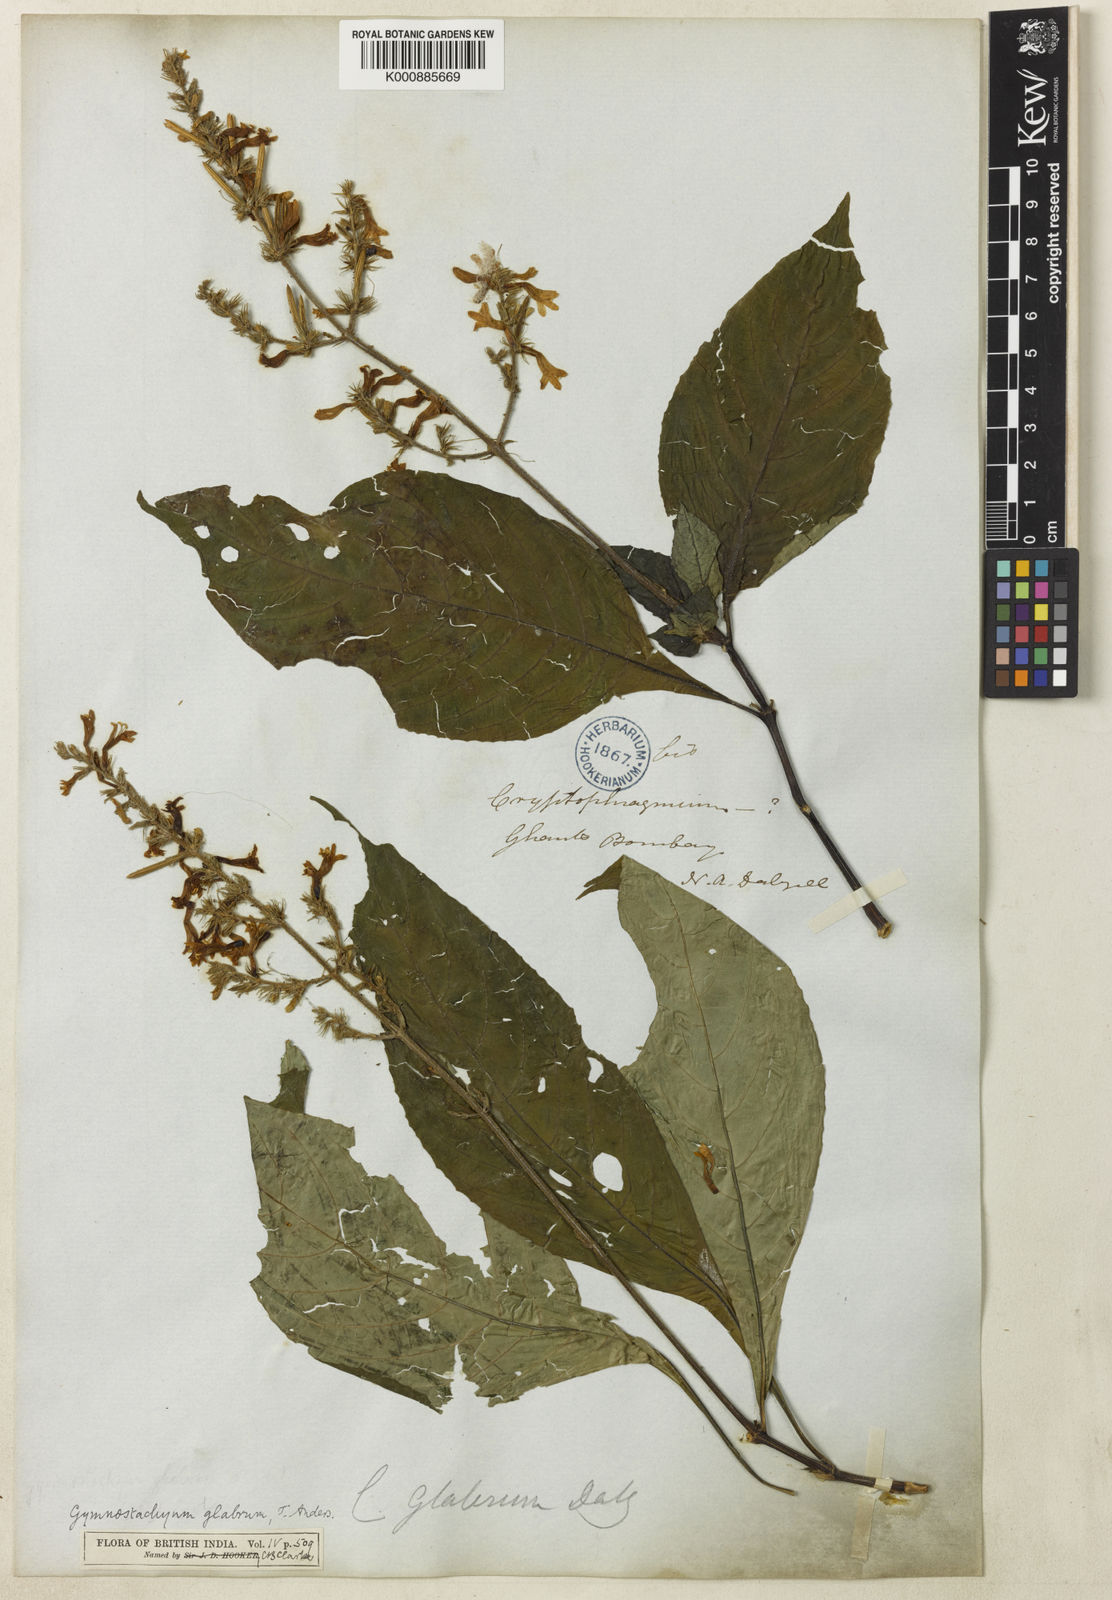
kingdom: Plantae
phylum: Tracheophyta
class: Magnoliopsida
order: Lamiales
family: Acanthaceae
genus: Gymnostachyum
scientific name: Gymnostachyum glabrum
